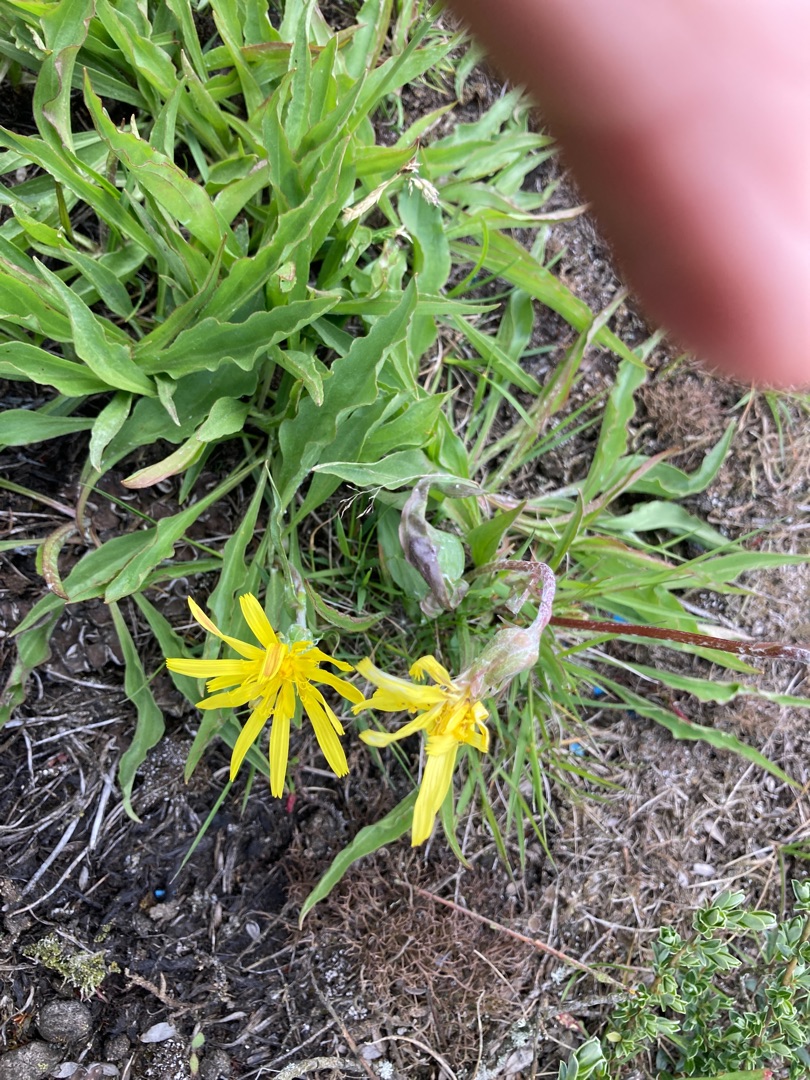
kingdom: Plantae
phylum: Tracheophyta
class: Magnoliopsida
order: Asterales
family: Asteraceae
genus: Scorzonera
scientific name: Scorzonera humilis
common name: Lav skorsoner
